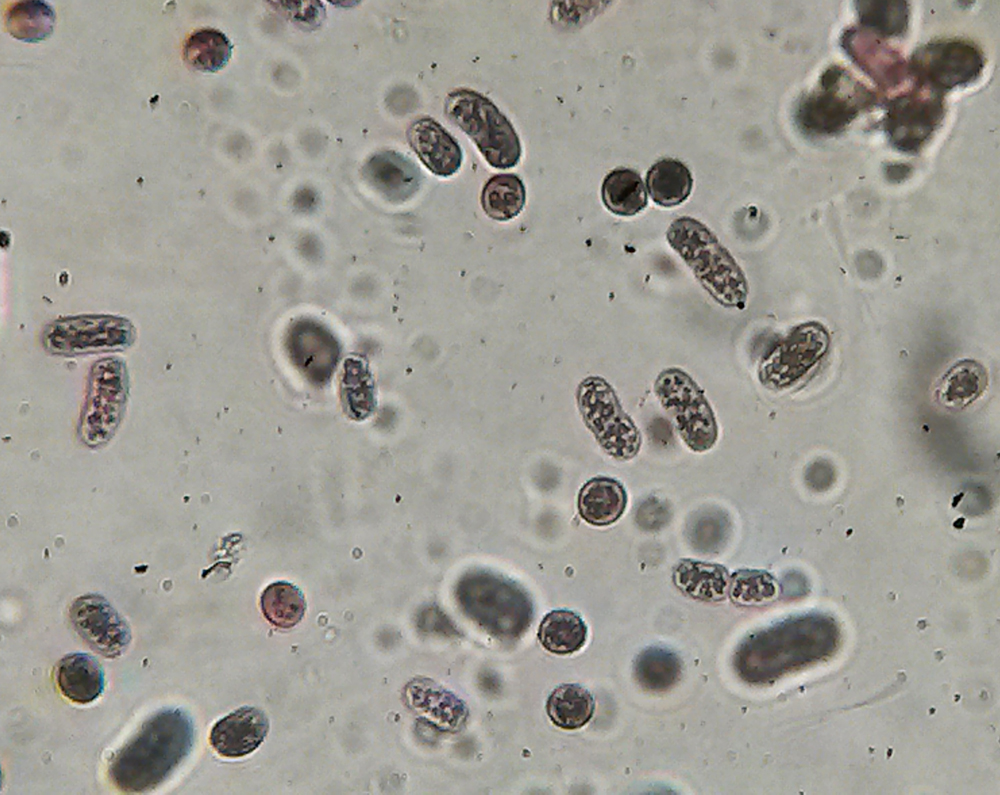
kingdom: Bacteria
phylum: Proteobacteria
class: Gammaproteobacteria
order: Chromatiales
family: Chromatiaceae
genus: Chromatium
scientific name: Chromatium okenii
